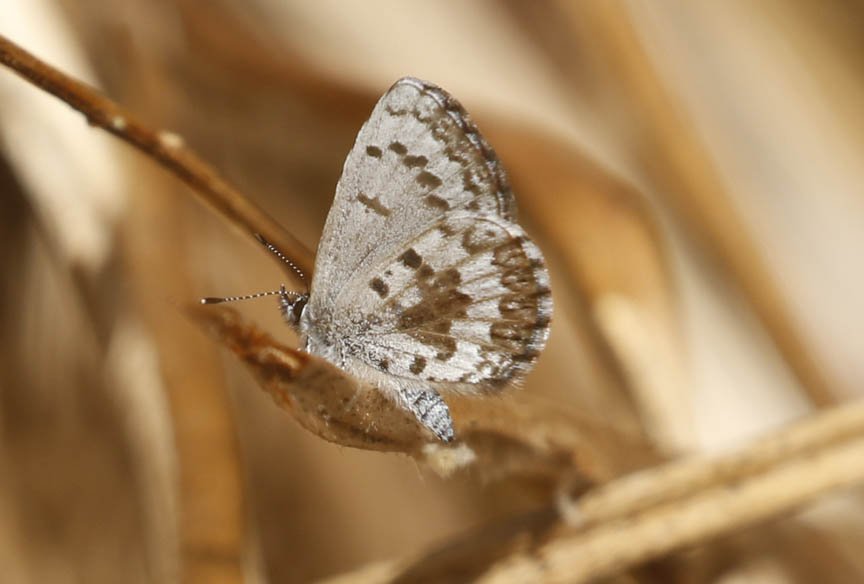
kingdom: Animalia
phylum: Arthropoda
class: Insecta
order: Lepidoptera
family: Lycaenidae
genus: Celastrina
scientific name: Celastrina lucia
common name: Northern Spring Azure
